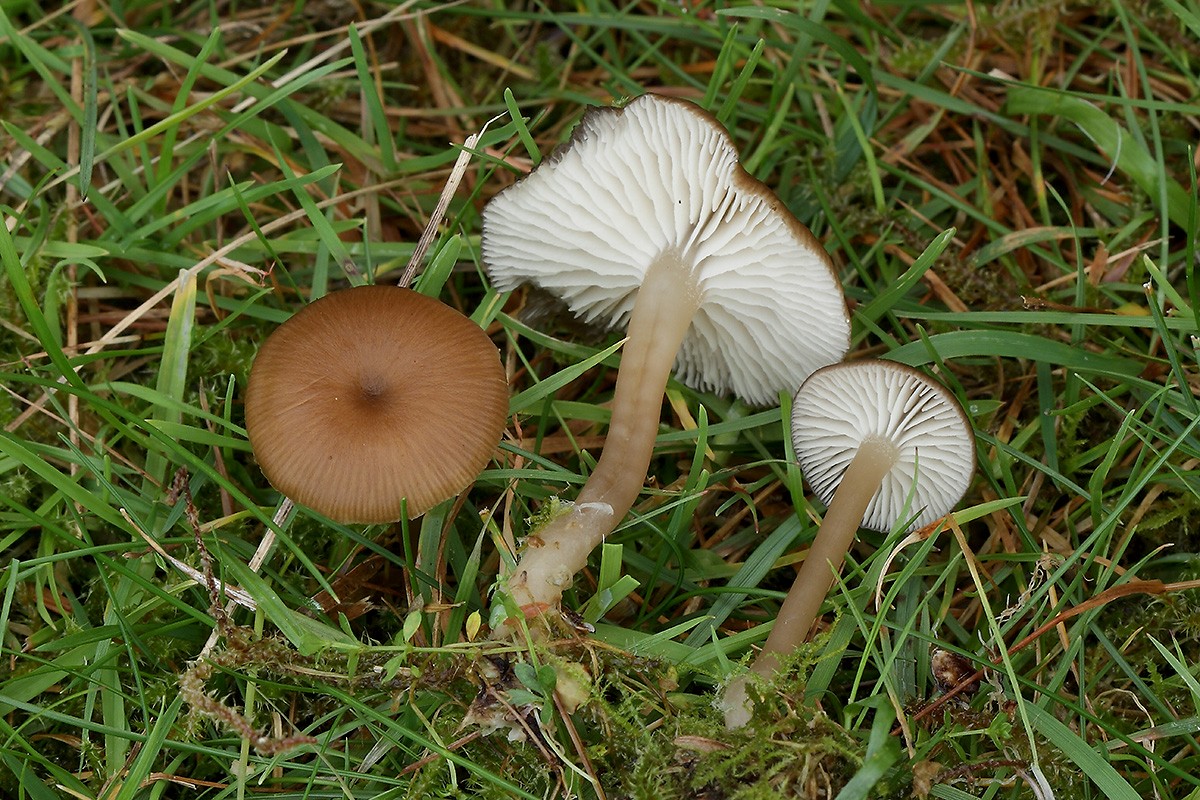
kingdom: Fungi
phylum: Basidiomycota
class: Agaricomycetes
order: Agaricales
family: Tricholomataceae
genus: Gamundia
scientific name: Gamundia striatula
